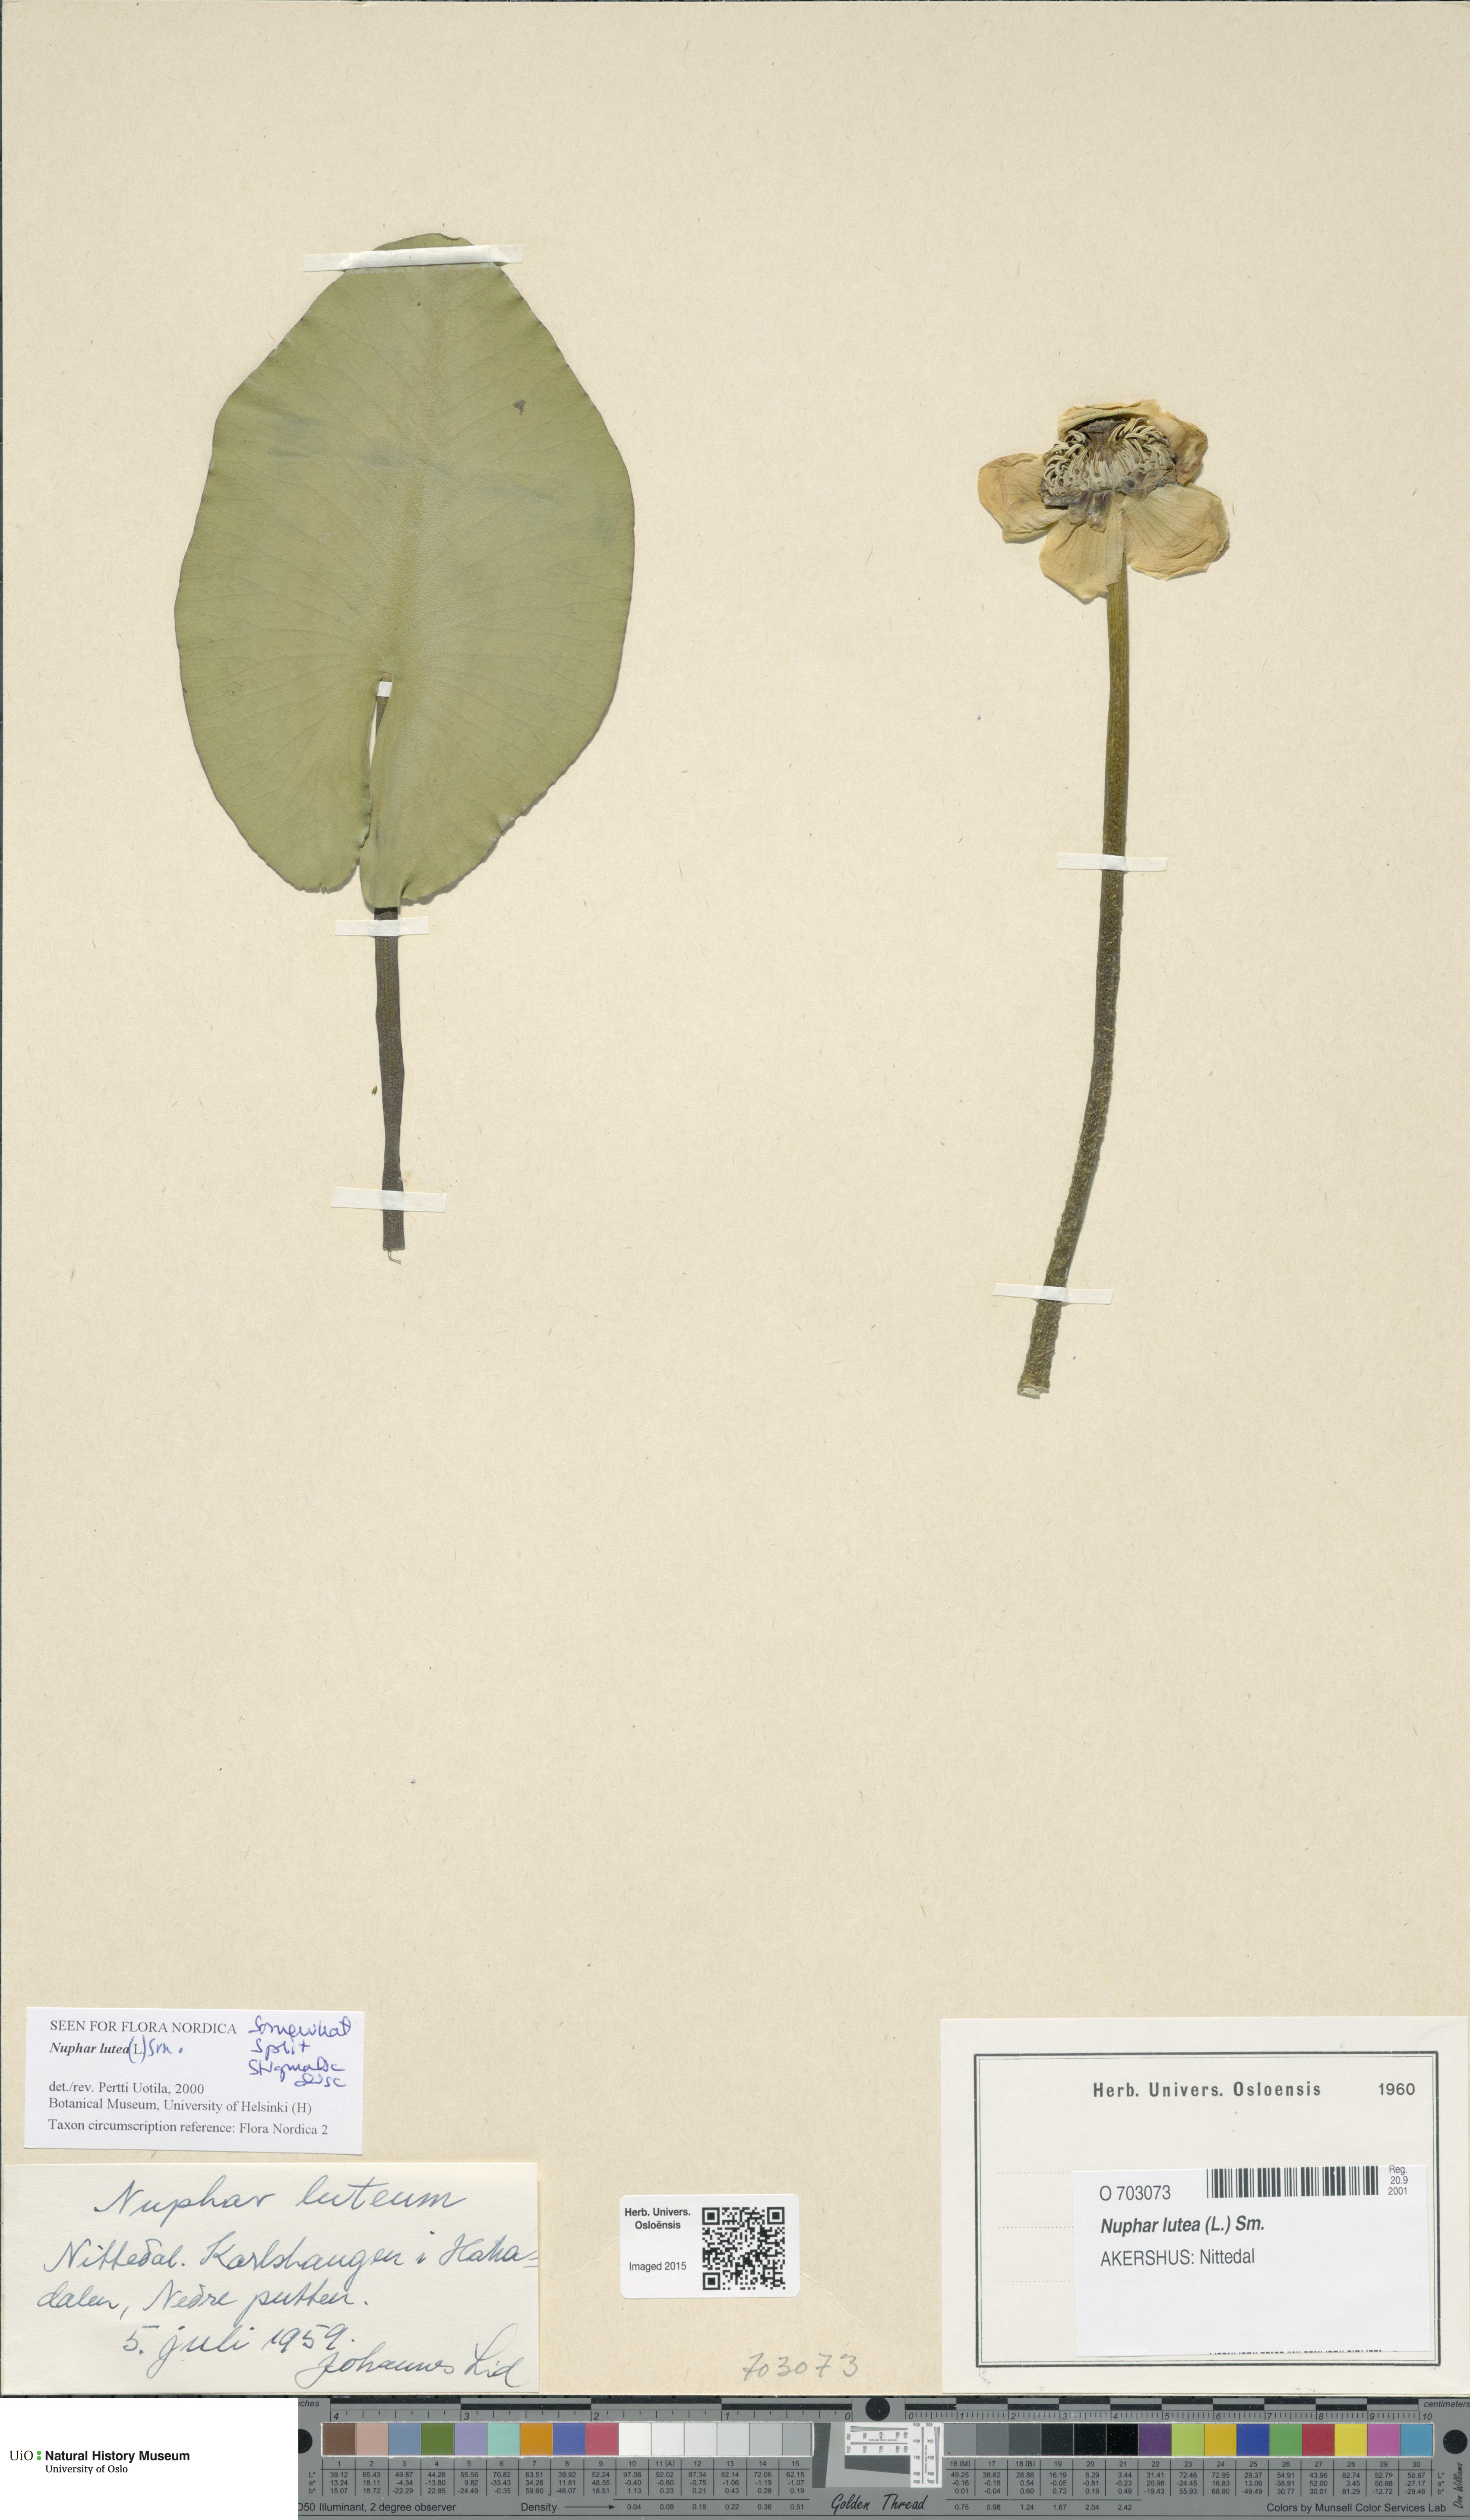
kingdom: Plantae
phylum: Tracheophyta
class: Magnoliopsida
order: Nymphaeales
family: Nymphaeaceae
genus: Nuphar
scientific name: Nuphar lutea
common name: Yellow water-lily
